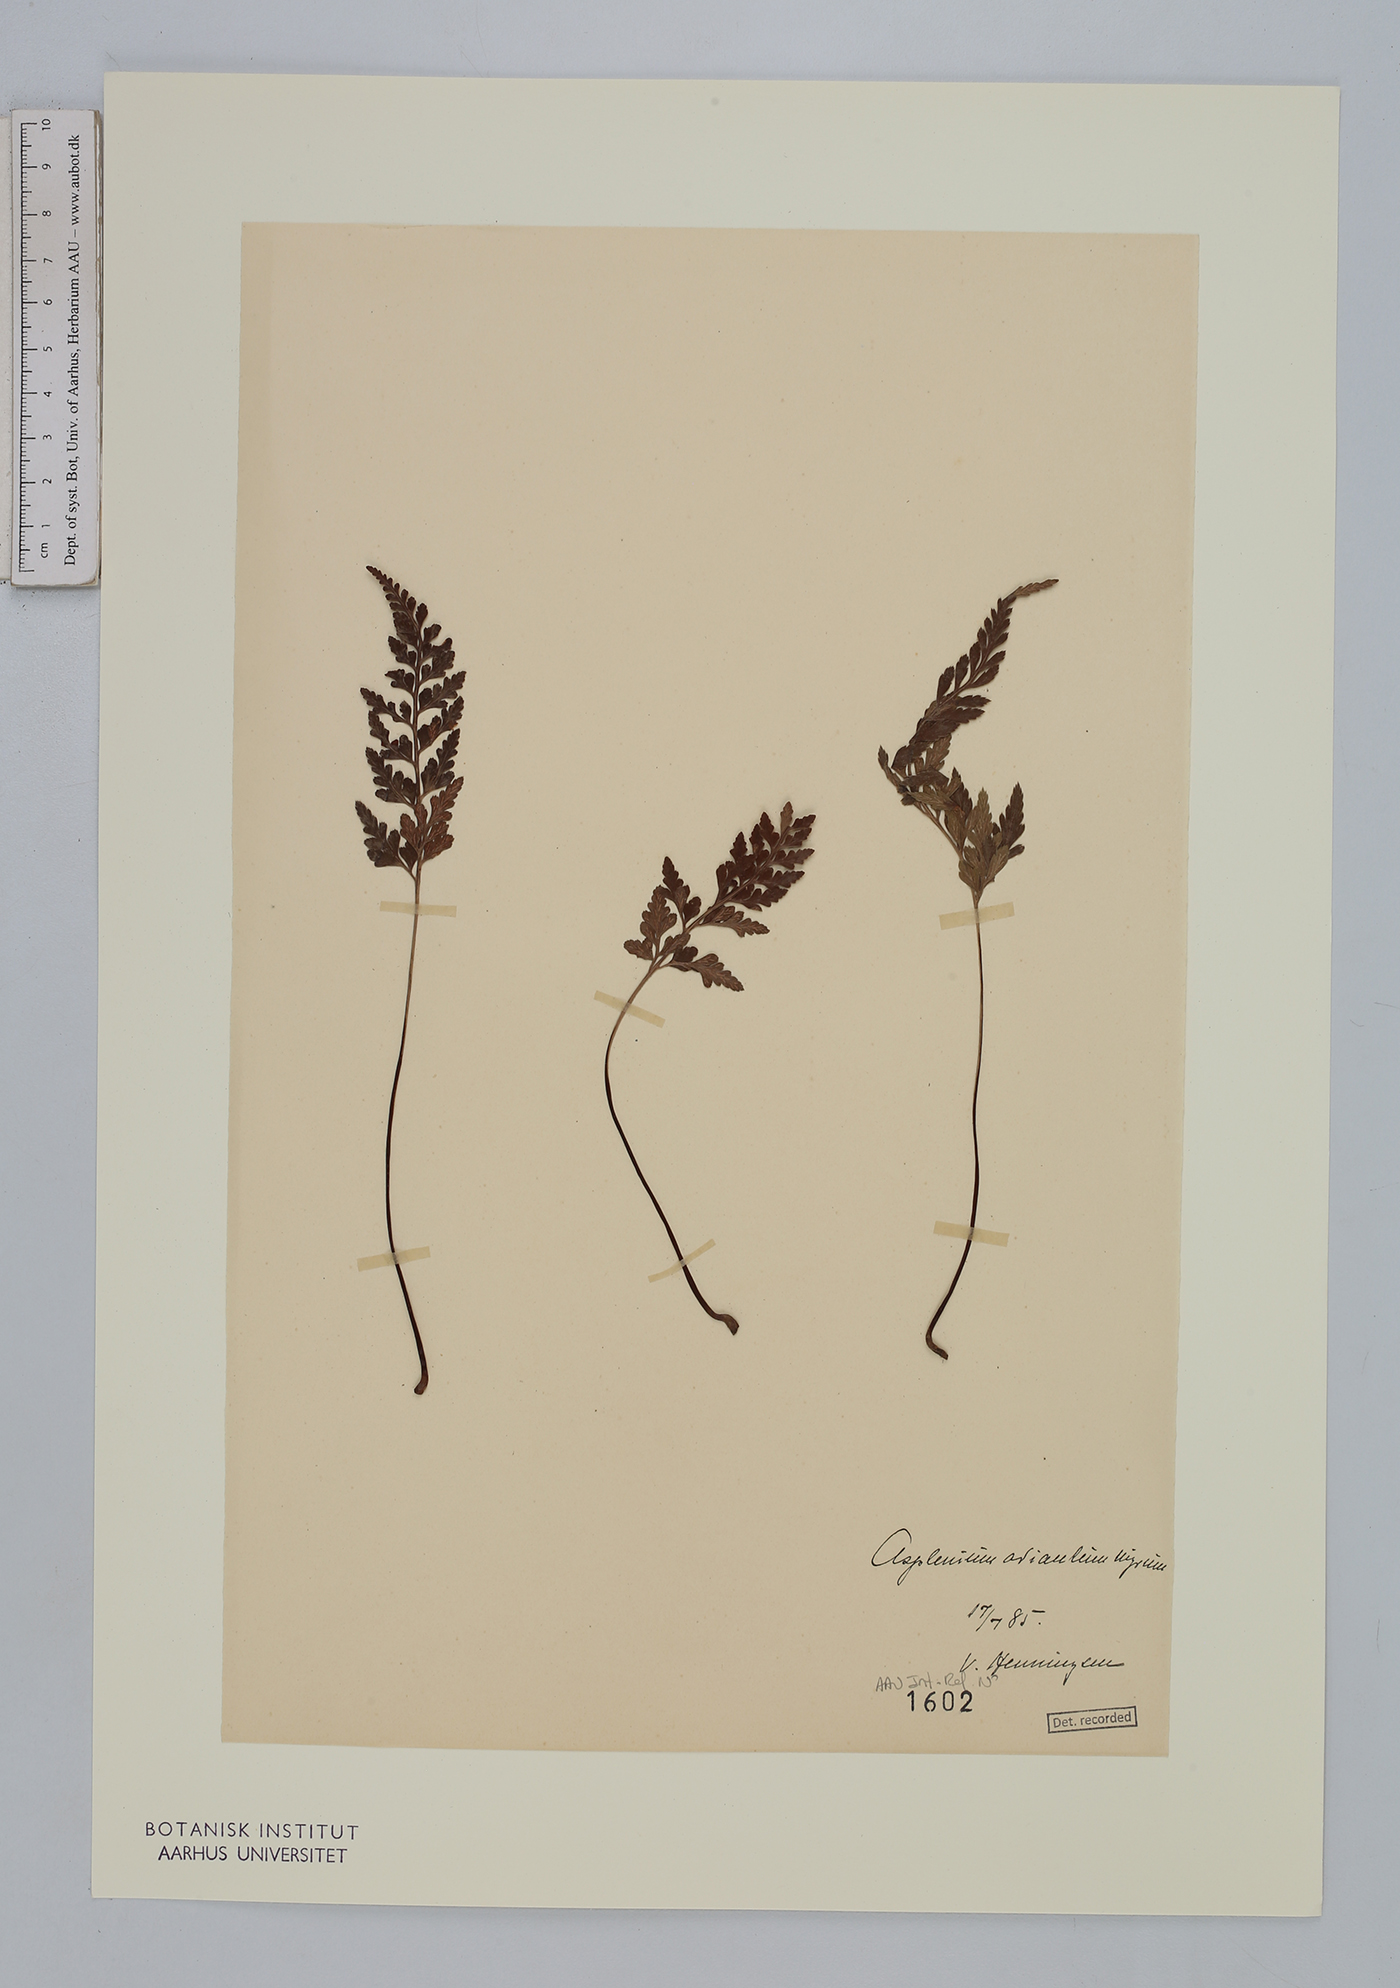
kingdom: Plantae
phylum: Tracheophyta
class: Polypodiopsida
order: Polypodiales
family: Aspleniaceae
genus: Asplenium
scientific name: Asplenium adiantum-nigrum
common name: Black spleenwort
